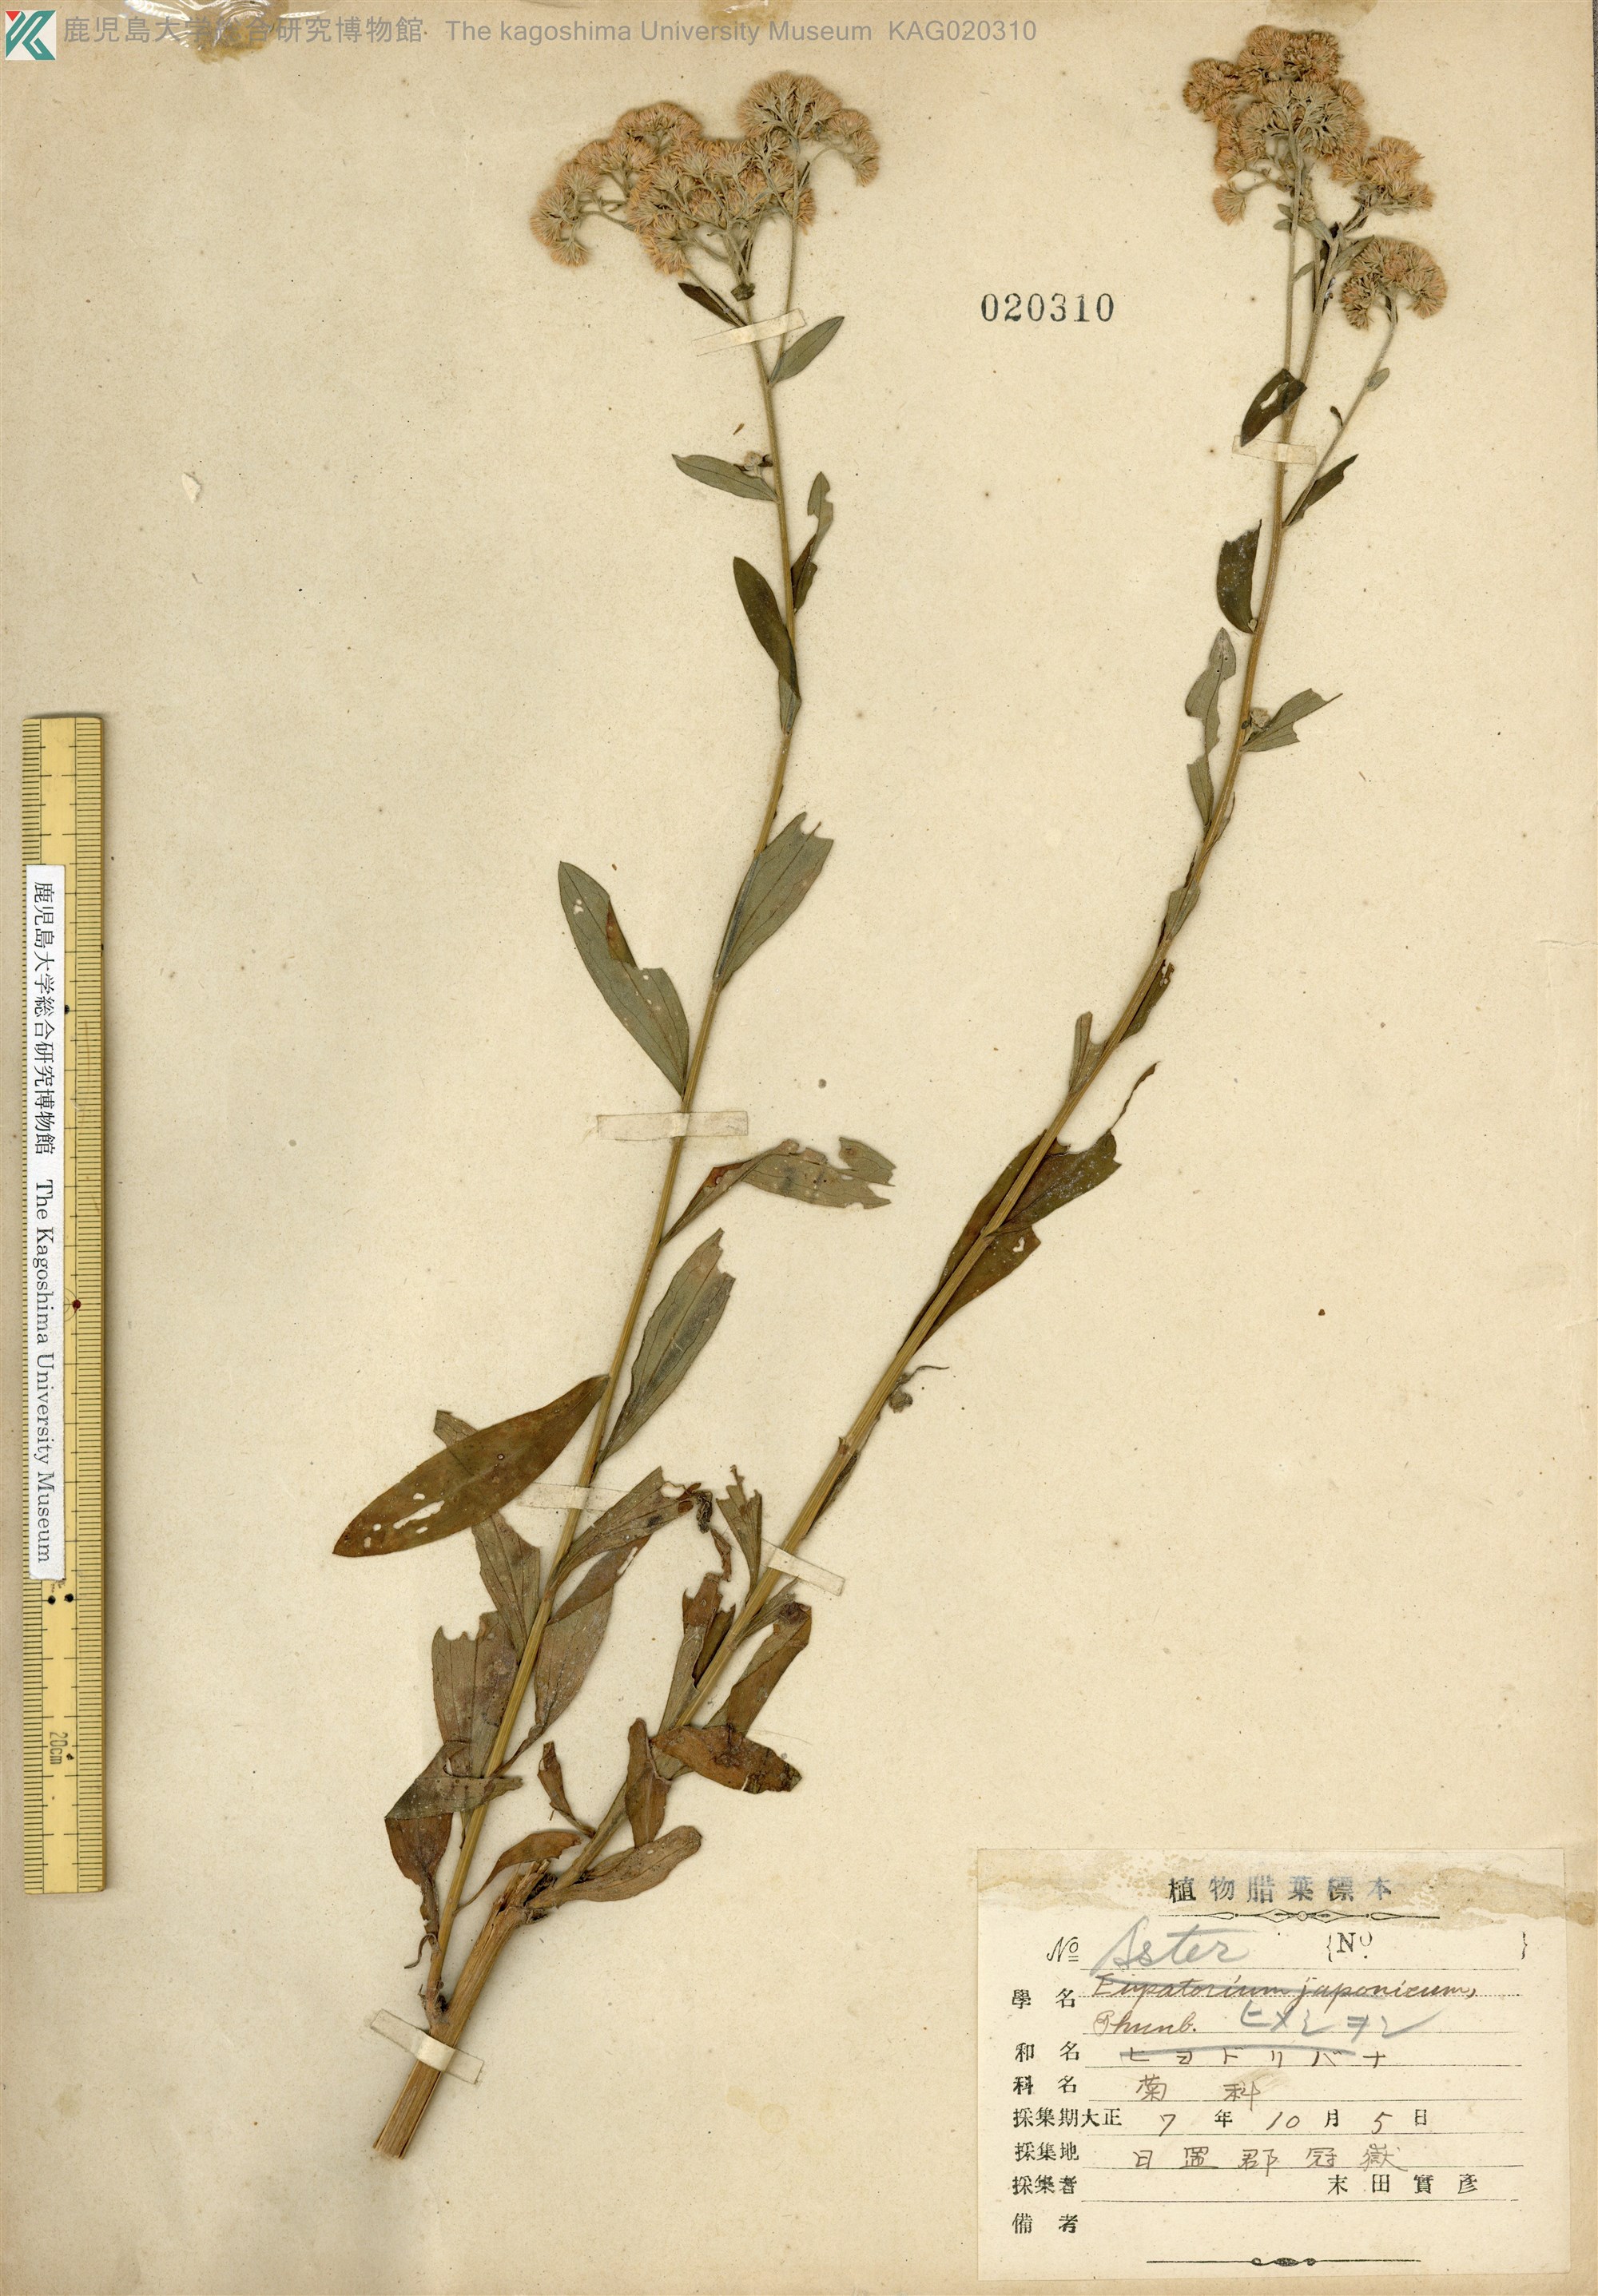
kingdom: Plantae
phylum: Tracheophyta
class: Magnoliopsida
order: Asterales
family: Asteraceae
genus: Turczaninovia
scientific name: Turczaninovia fastigiata
